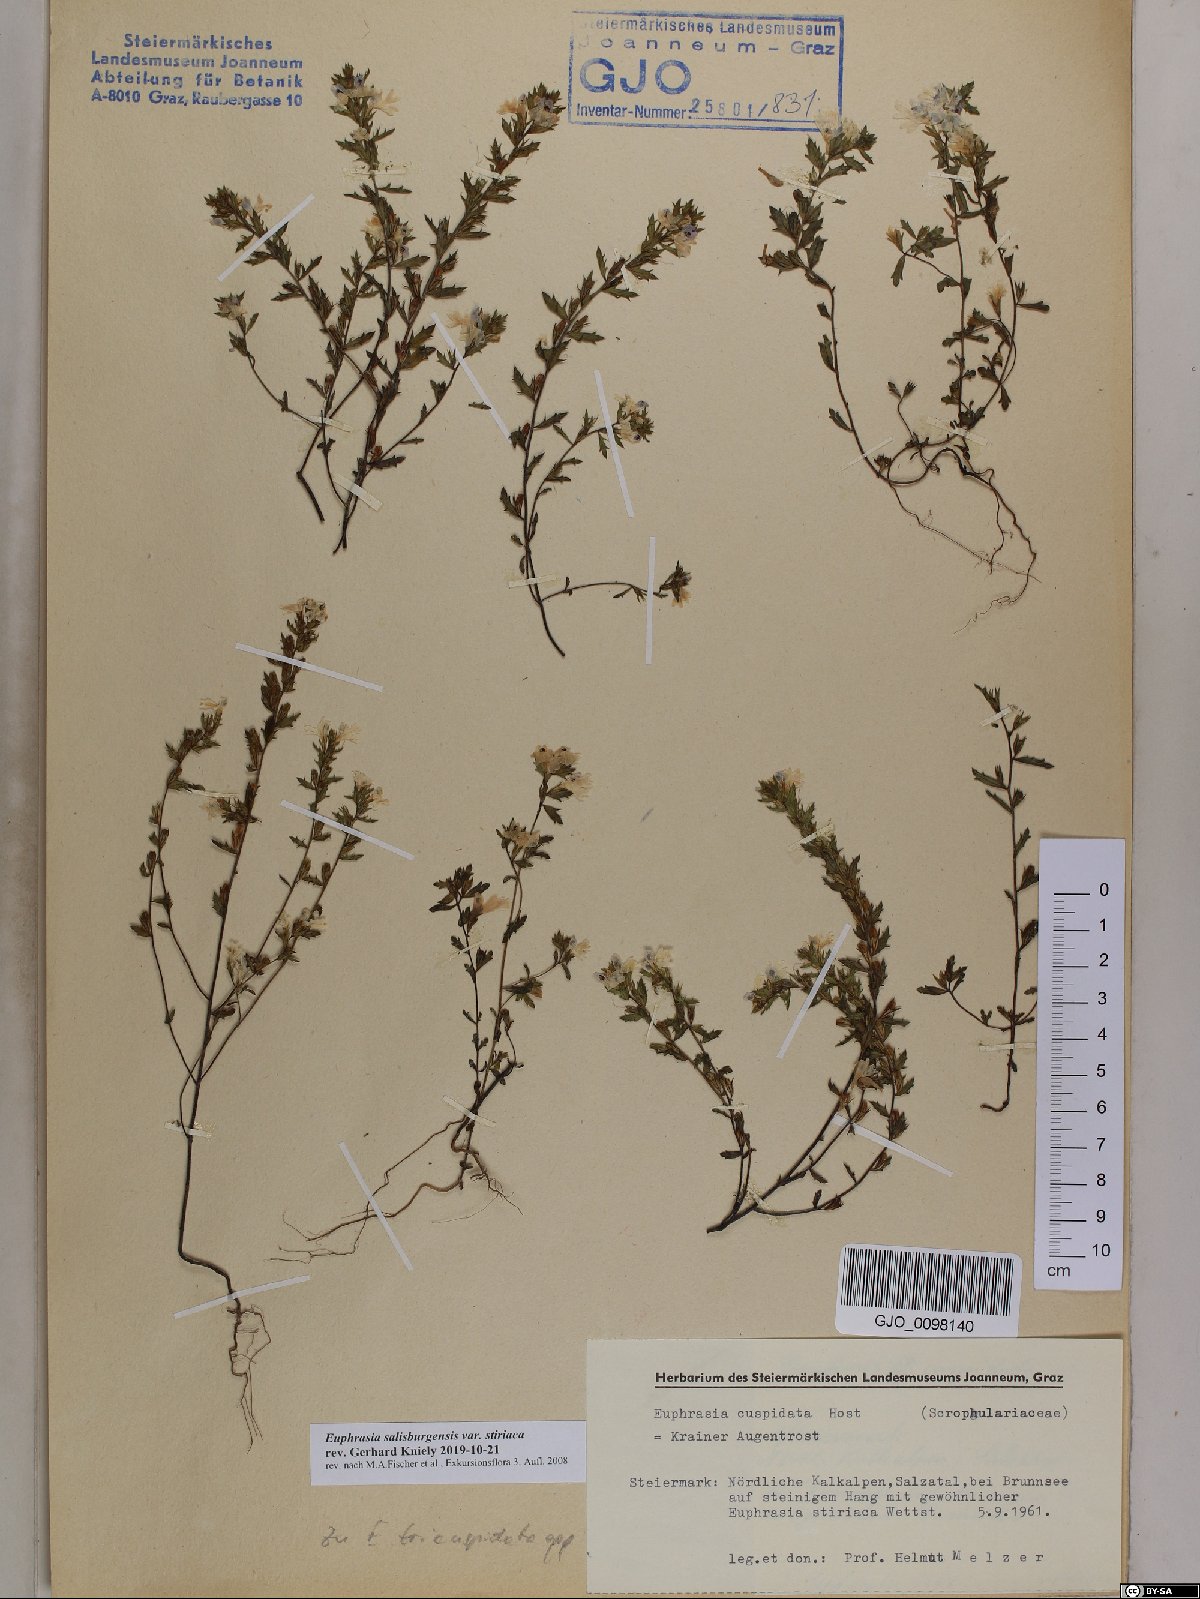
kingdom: Plantae
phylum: Tracheophyta
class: Magnoliopsida
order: Lamiales
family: Orobanchaceae
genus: Euphrasia
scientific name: Euphrasia salisburgensis
